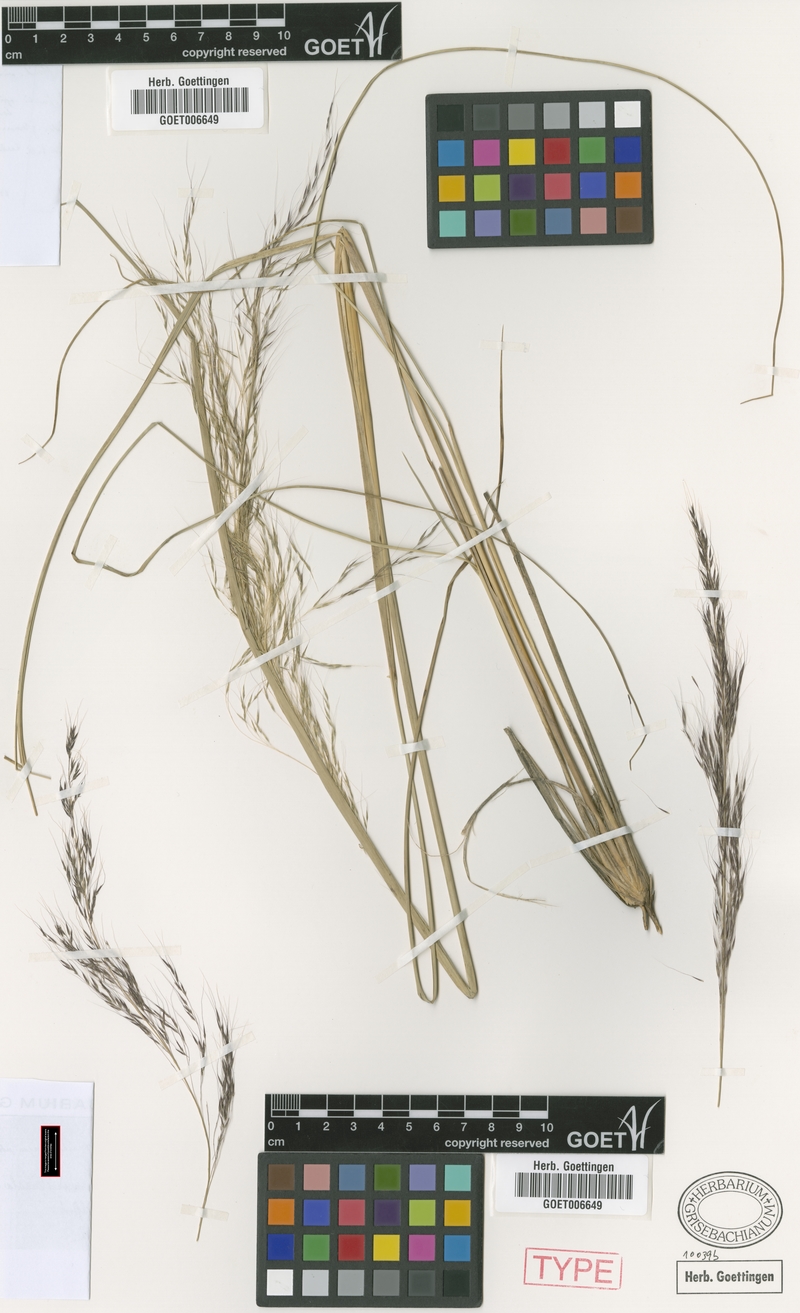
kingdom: Plantae
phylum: Tracheophyta
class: Liliopsida
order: Poales
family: Poaceae
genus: Muhlenbergia
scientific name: Muhlenbergia rigida
